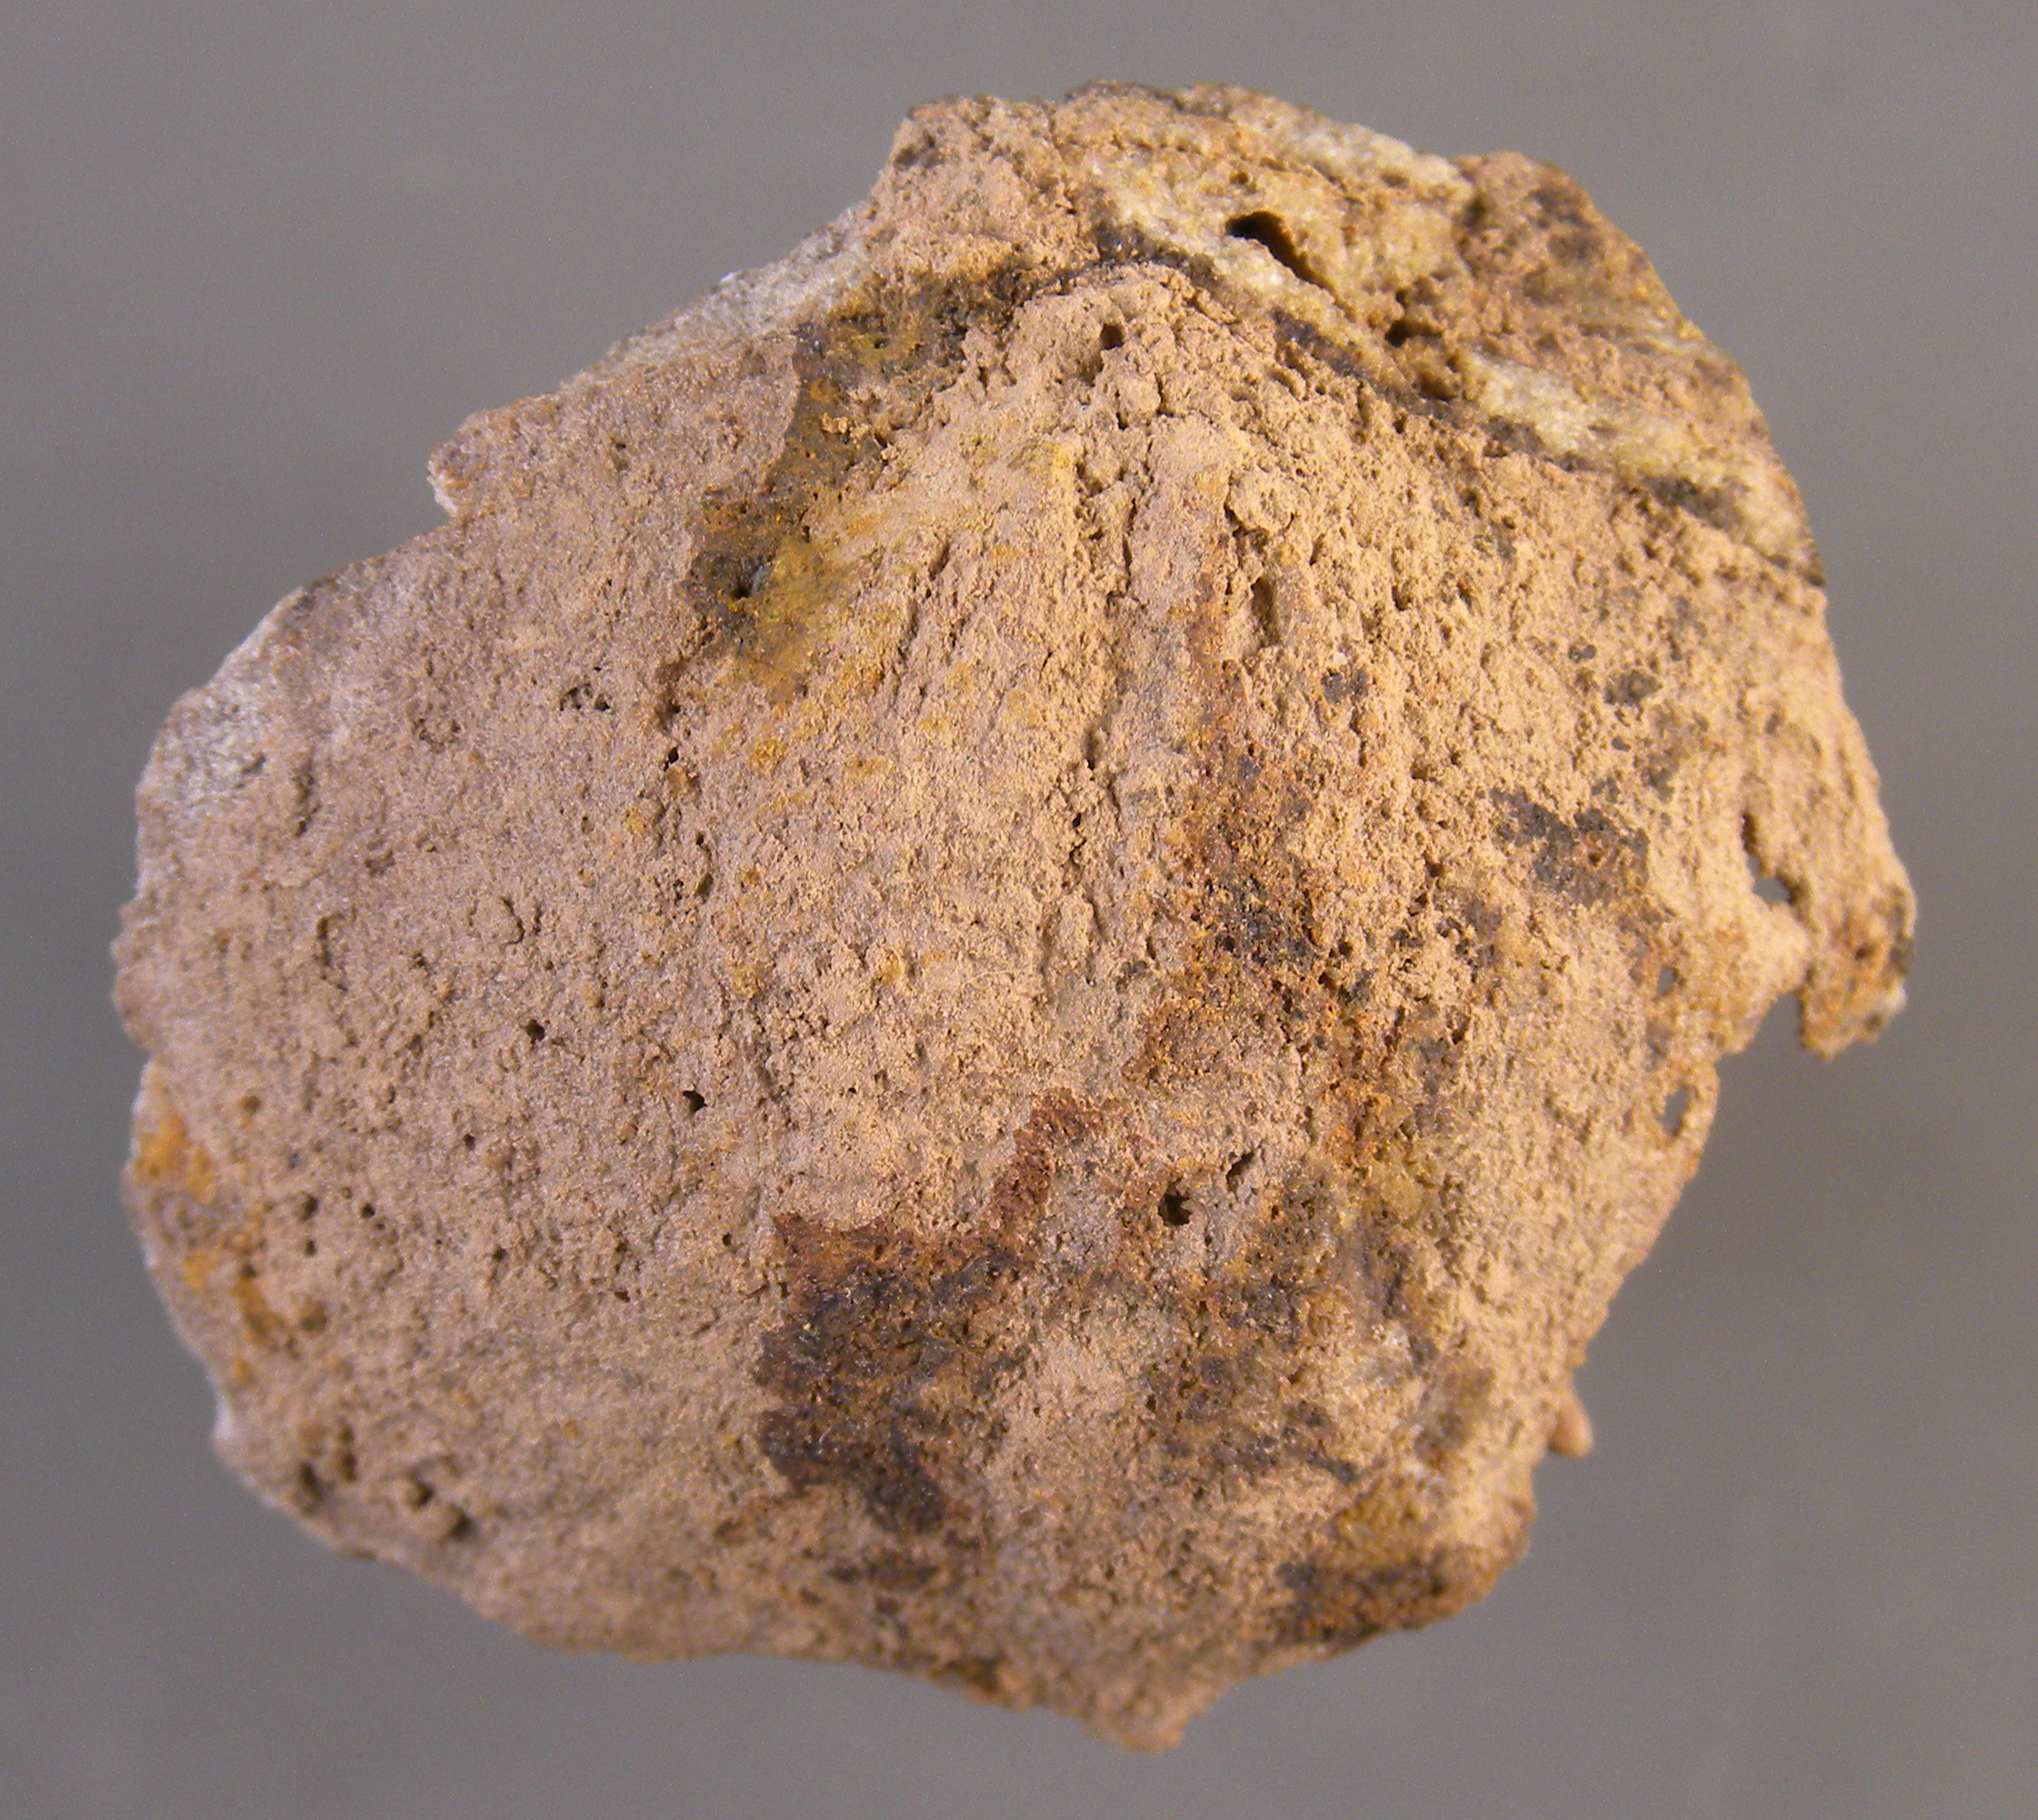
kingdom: Animalia
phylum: Brachiopoda
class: Rhynchonellata
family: Schizophoriidae
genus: Schizophoria
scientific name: Schizophoria
